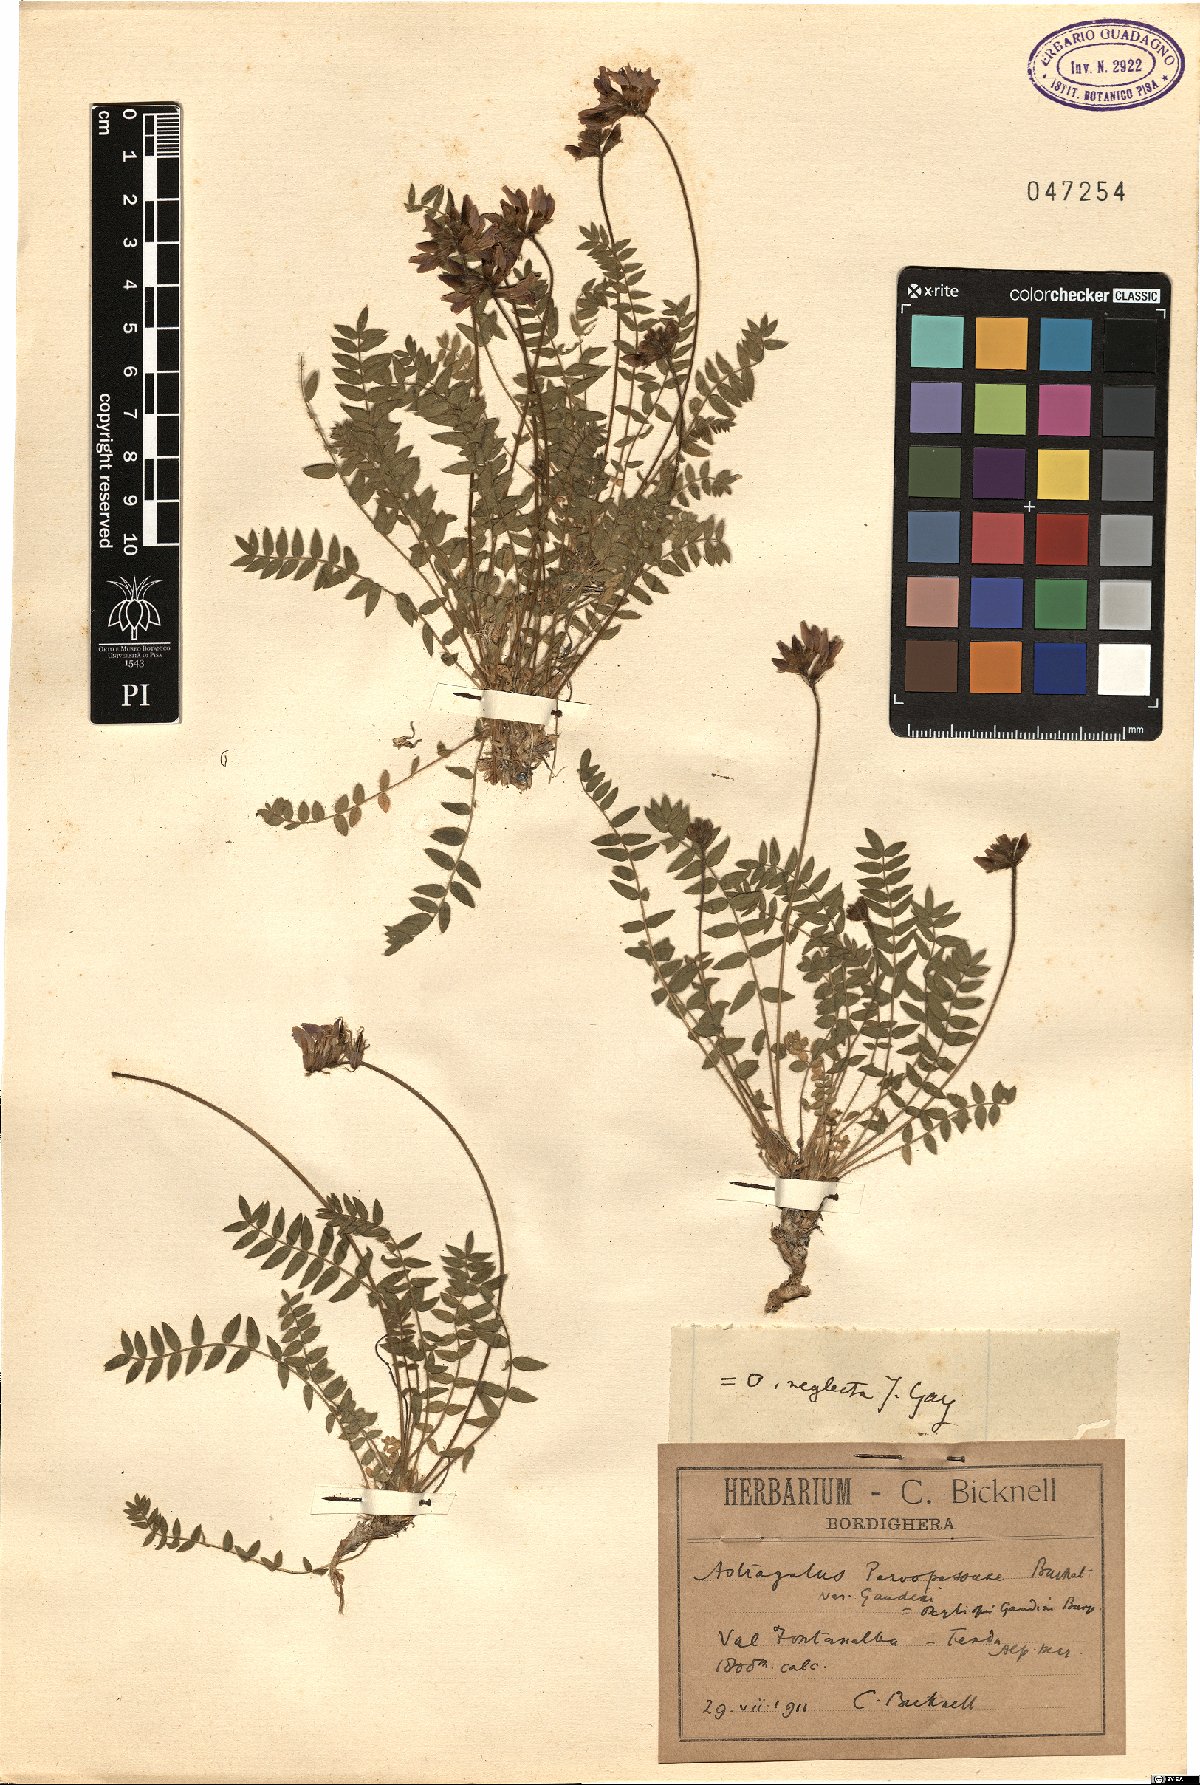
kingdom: Plantae
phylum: Tracheophyta
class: Magnoliopsida
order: Fabales
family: Fabaceae
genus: Oxytropis
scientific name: Oxytropis neglecta
